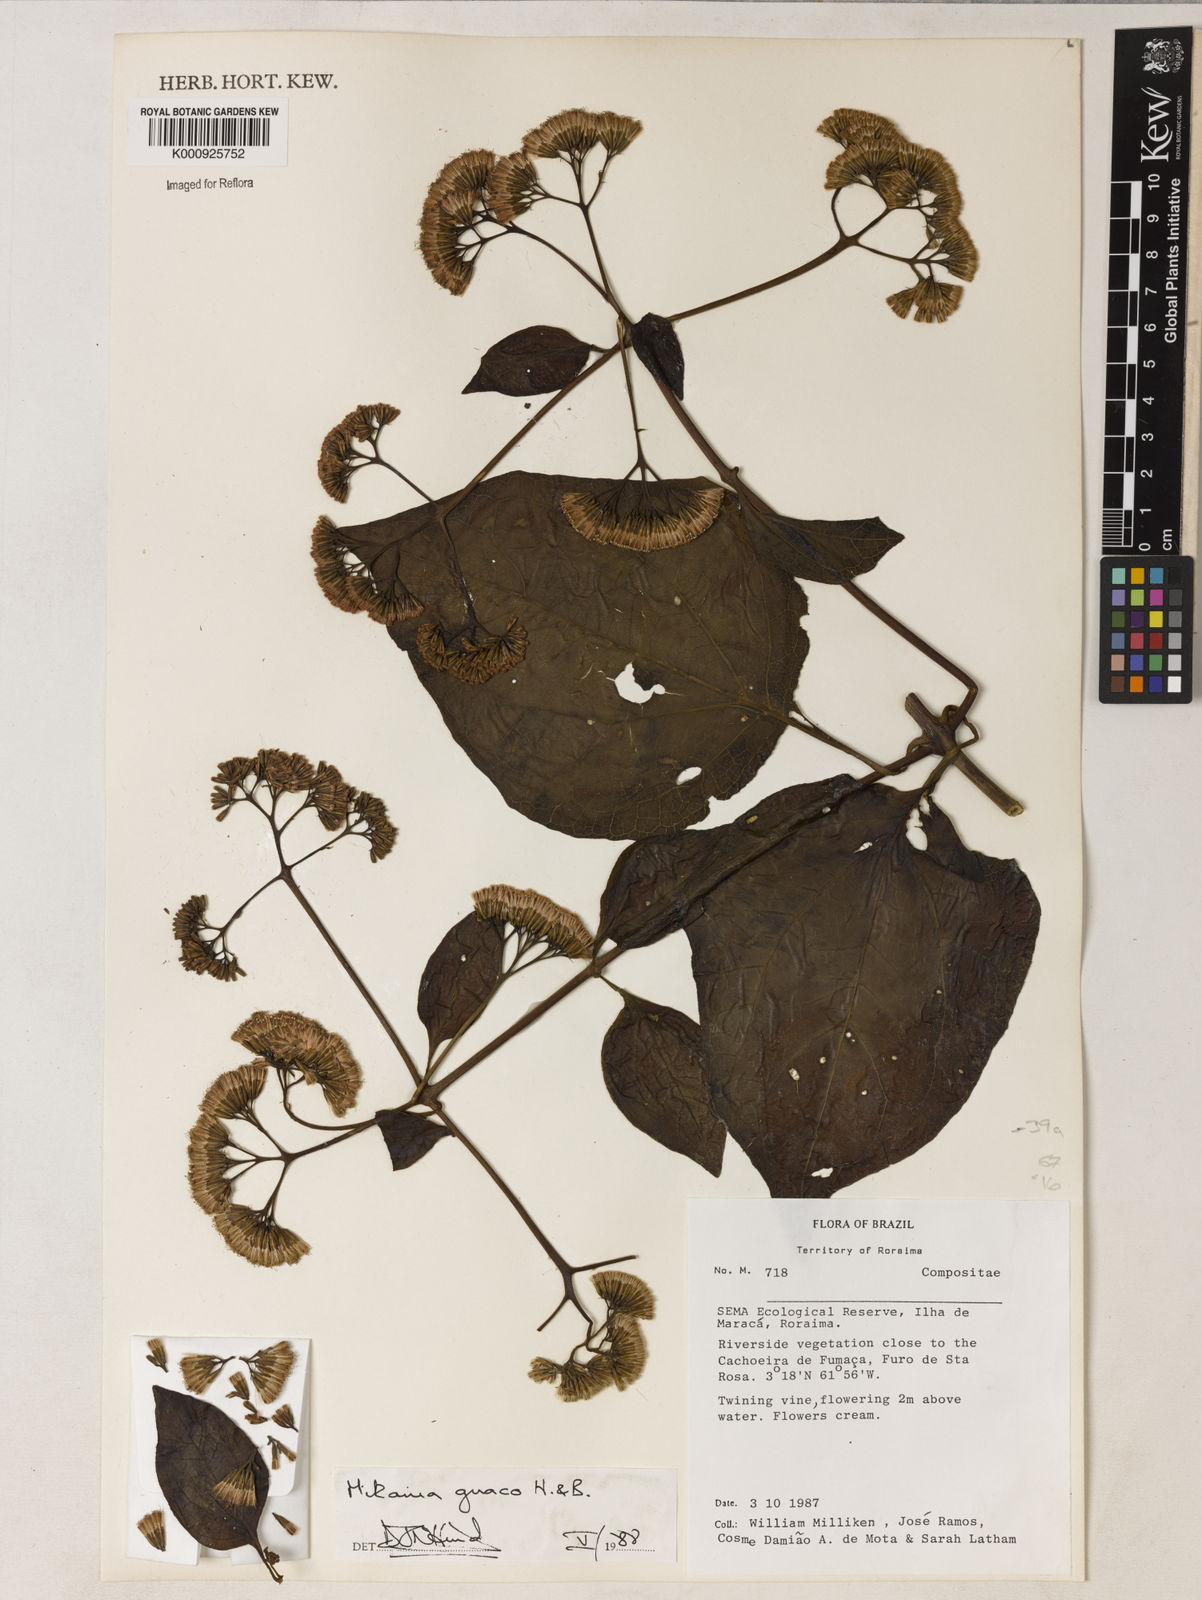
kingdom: Plantae
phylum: Tracheophyta
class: Magnoliopsida
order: Asterales
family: Asteraceae
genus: Mikania
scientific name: Mikania guaco
